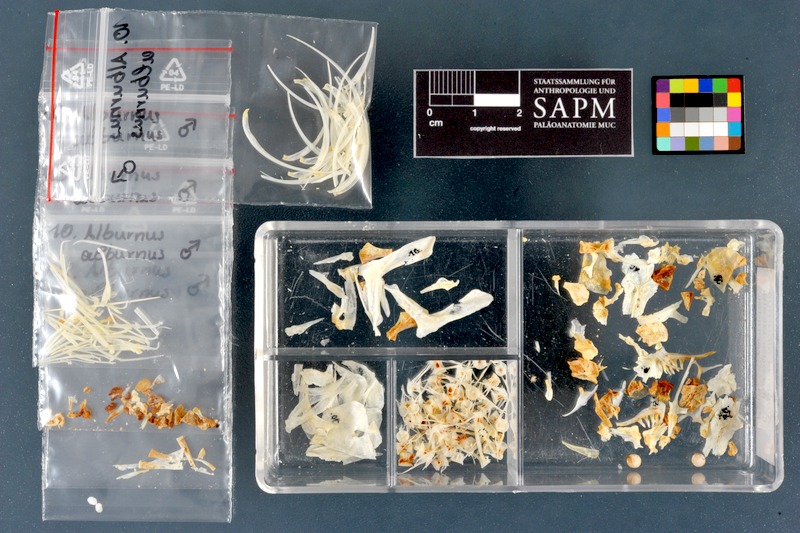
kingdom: Animalia
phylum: Chordata
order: Cypriniformes
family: Cyprinidae
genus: Alburnus
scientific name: Alburnus alburnus
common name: Bleak
